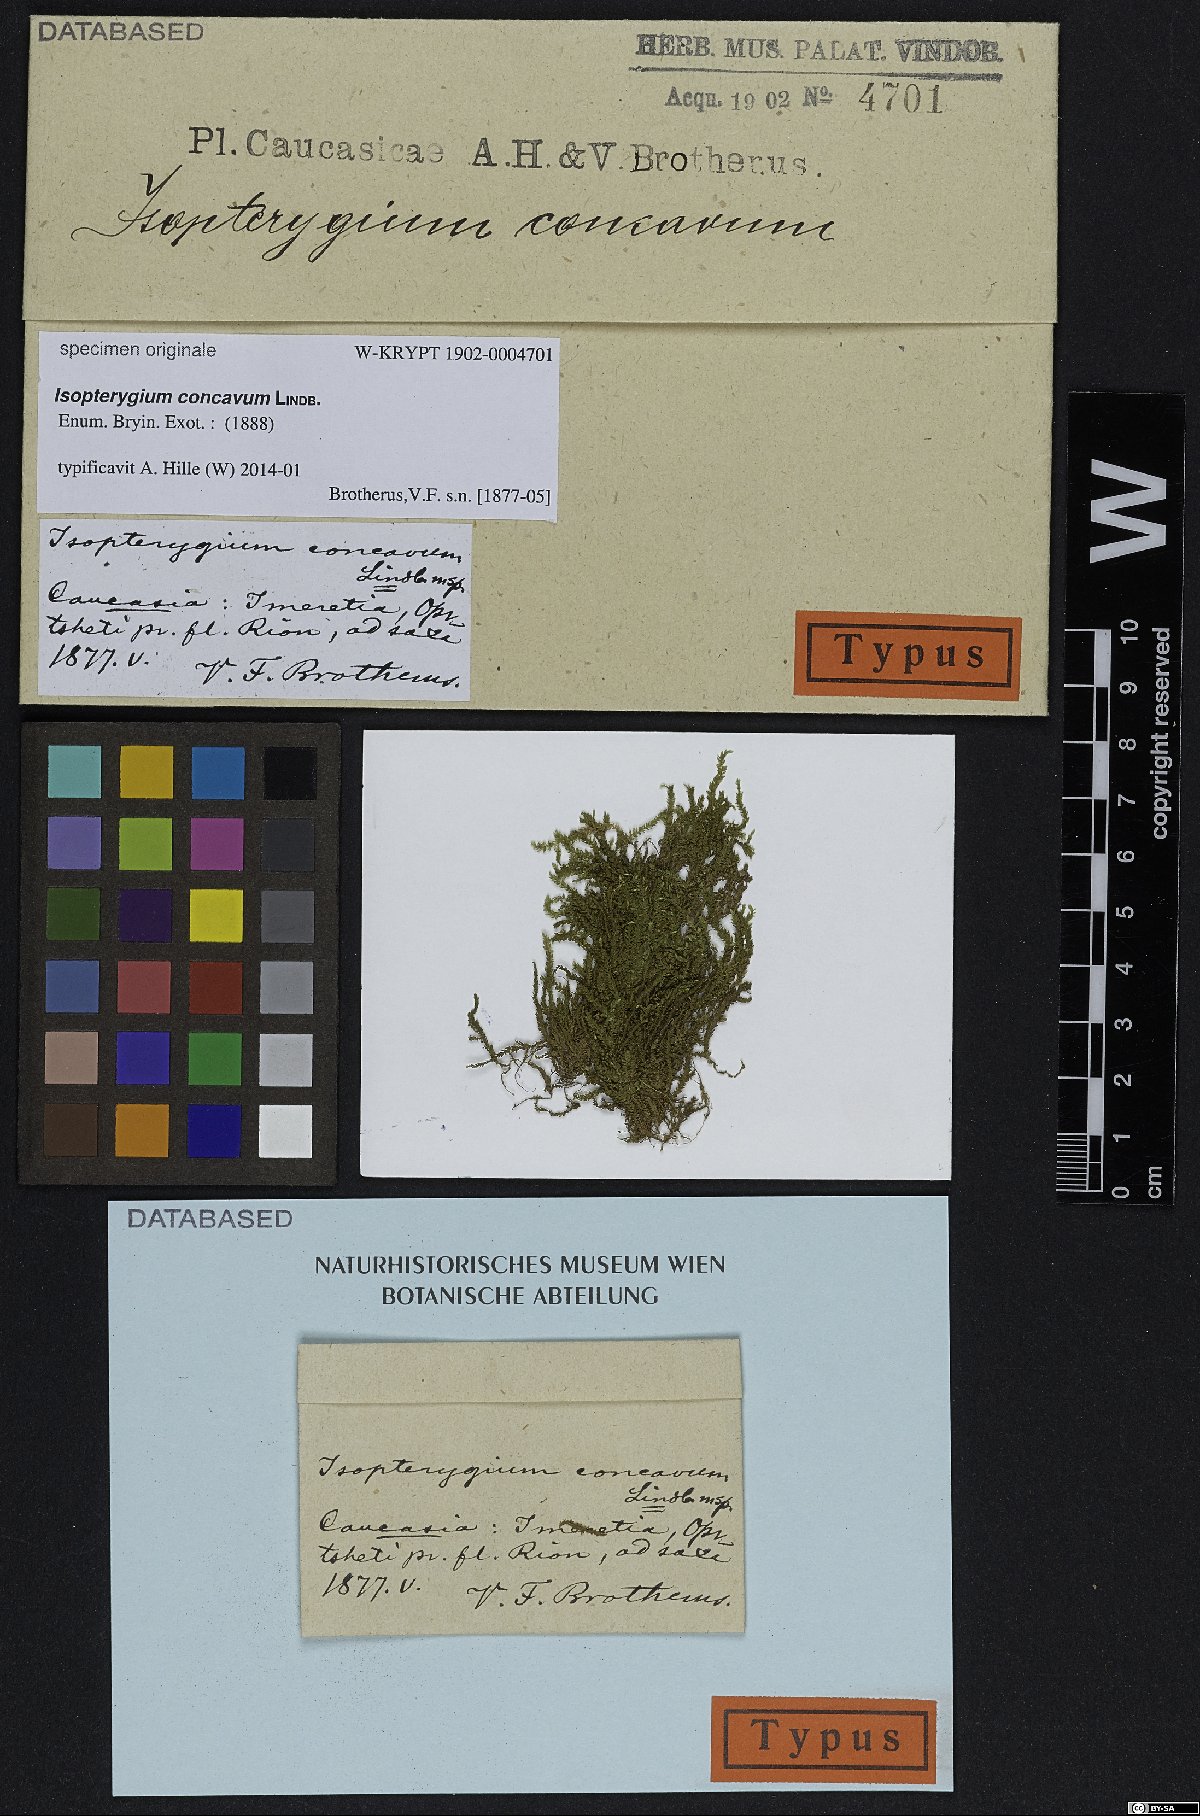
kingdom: Plantae
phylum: Bryophyta
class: Bryopsida
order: Hypnales
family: Hypnaceae
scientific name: Hypnaceae
